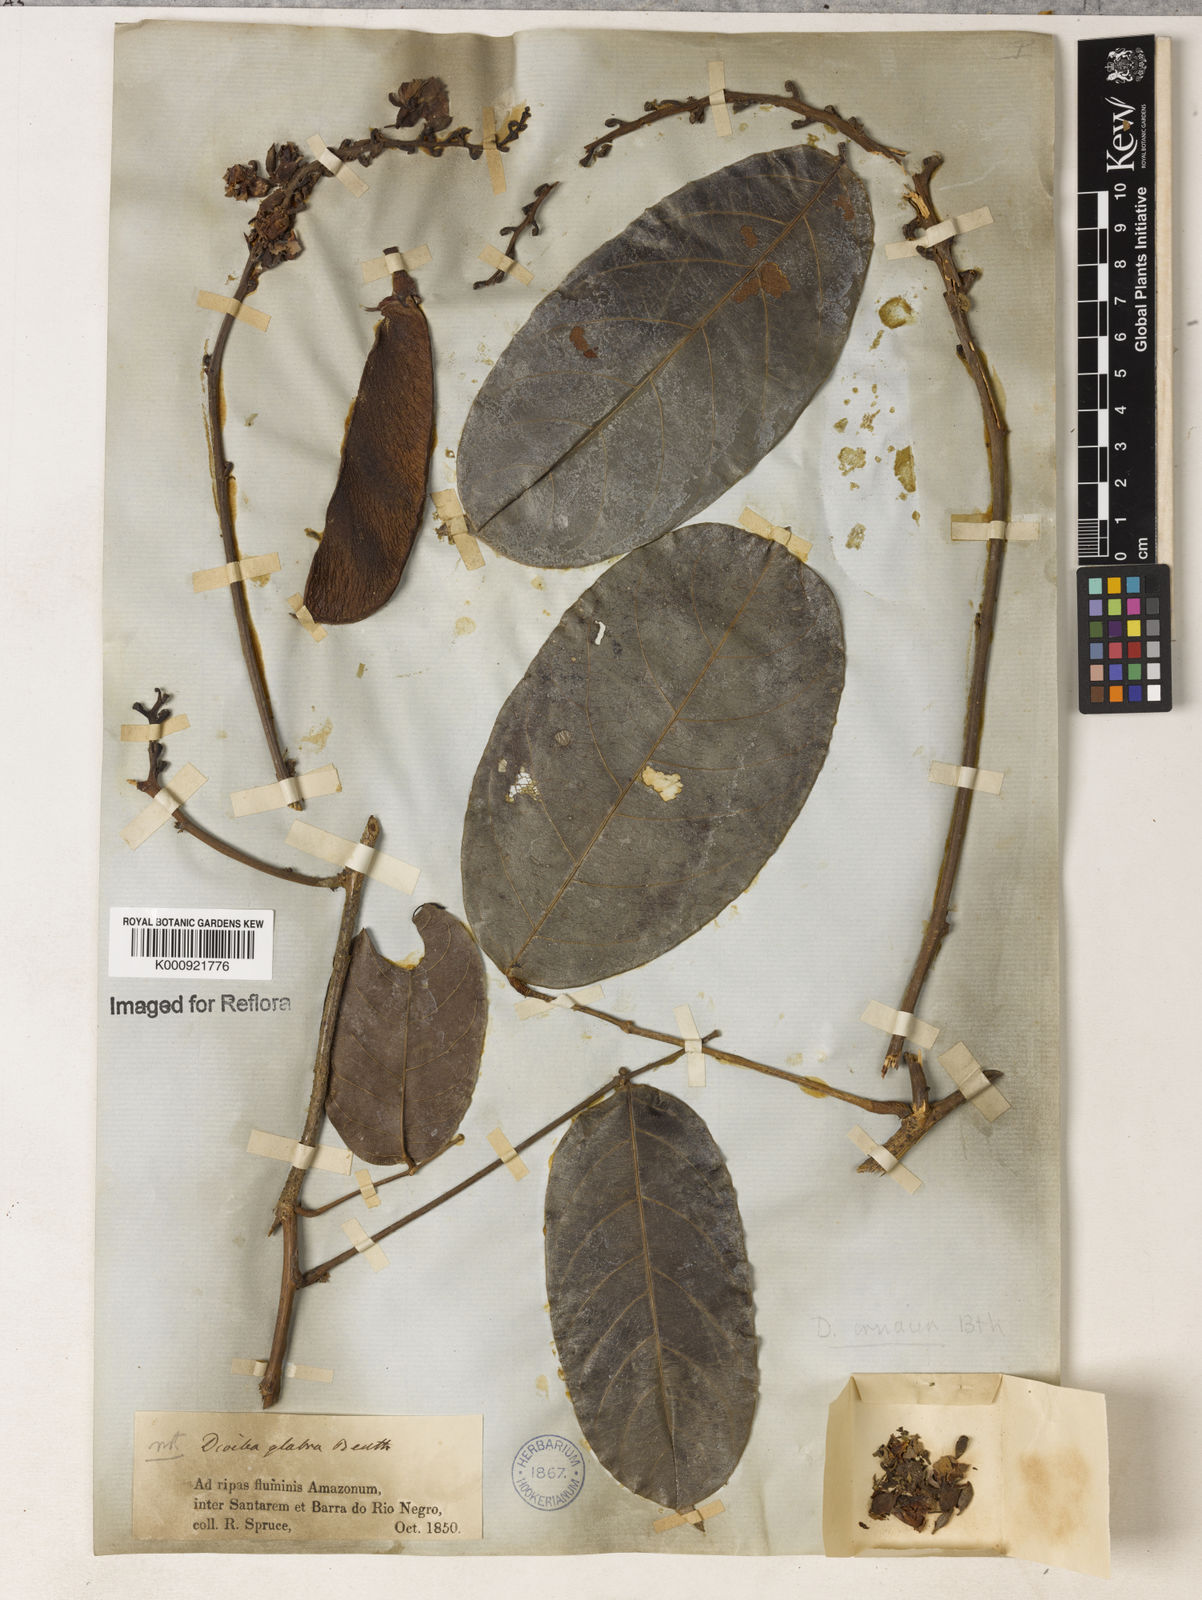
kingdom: Plantae
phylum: Tracheophyta
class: Magnoliopsida
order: Fabales
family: Fabaceae
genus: Macropsychanthus
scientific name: Macropsychanthus glaber
